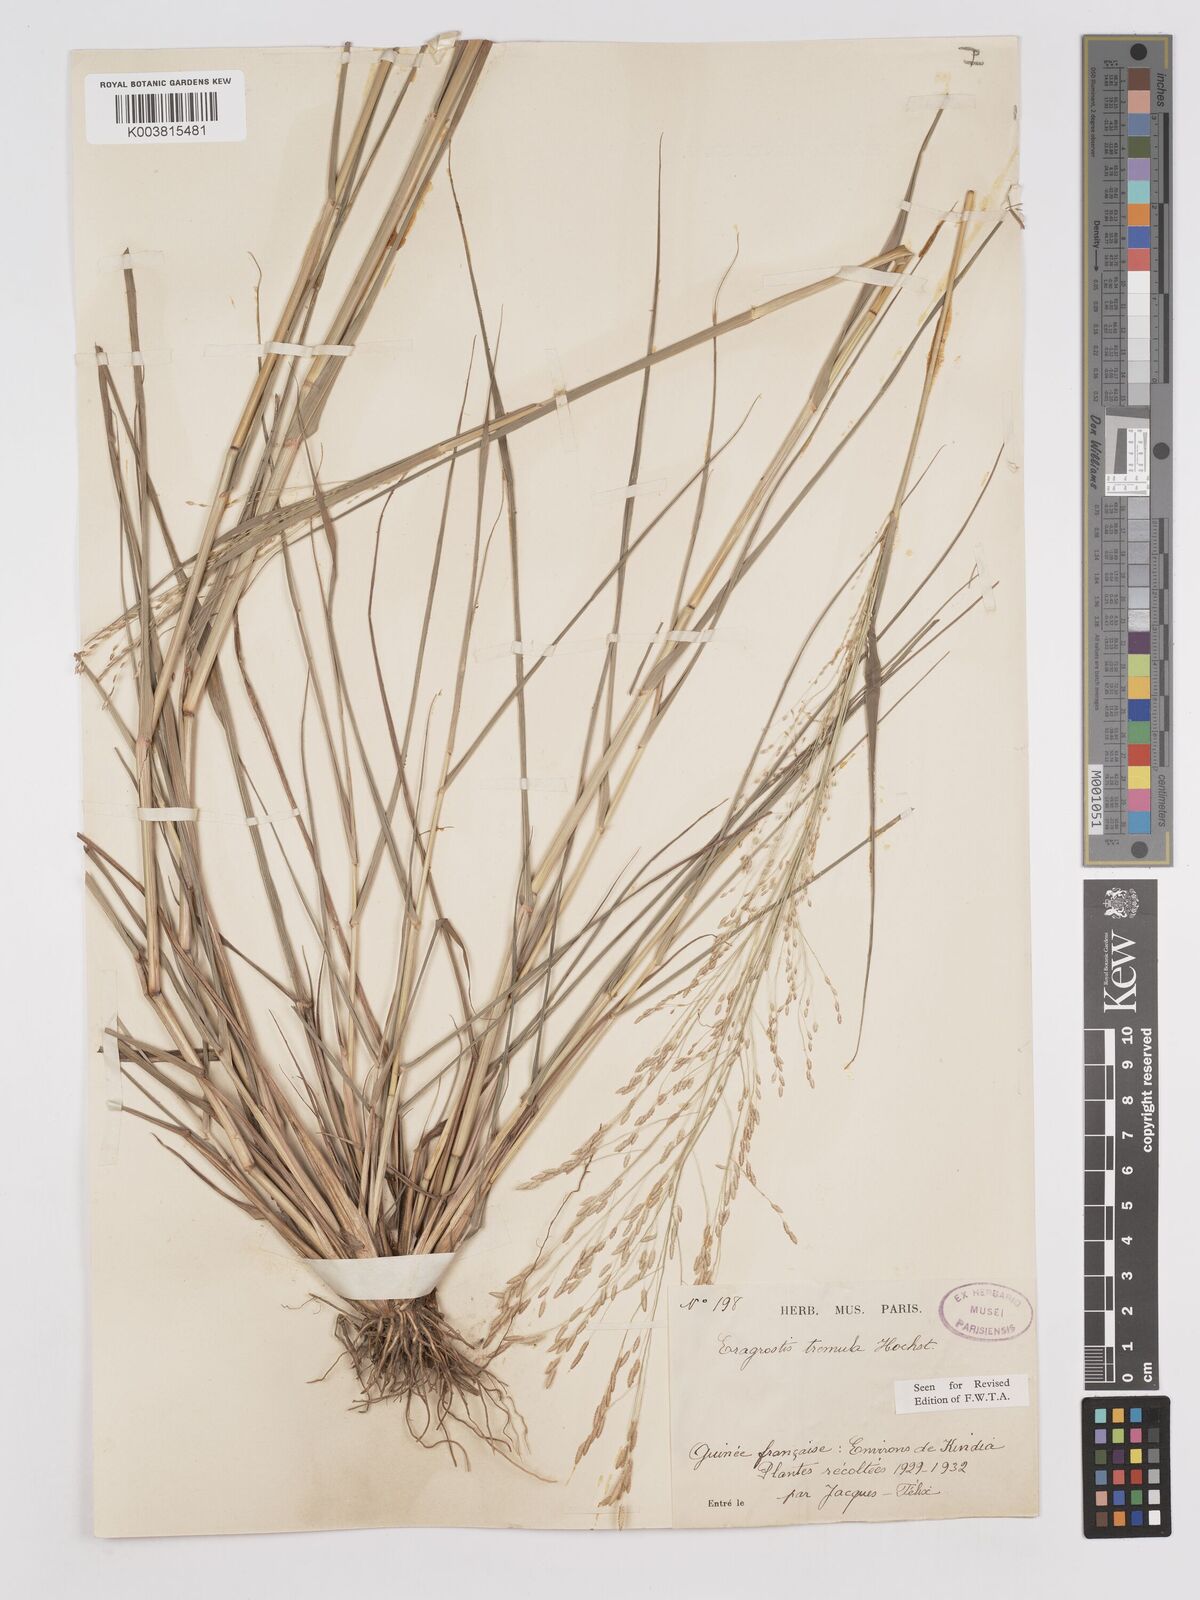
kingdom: Plantae
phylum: Tracheophyta
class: Liliopsida
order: Poales
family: Poaceae
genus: Eragrostis
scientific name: Eragrostis tremula
